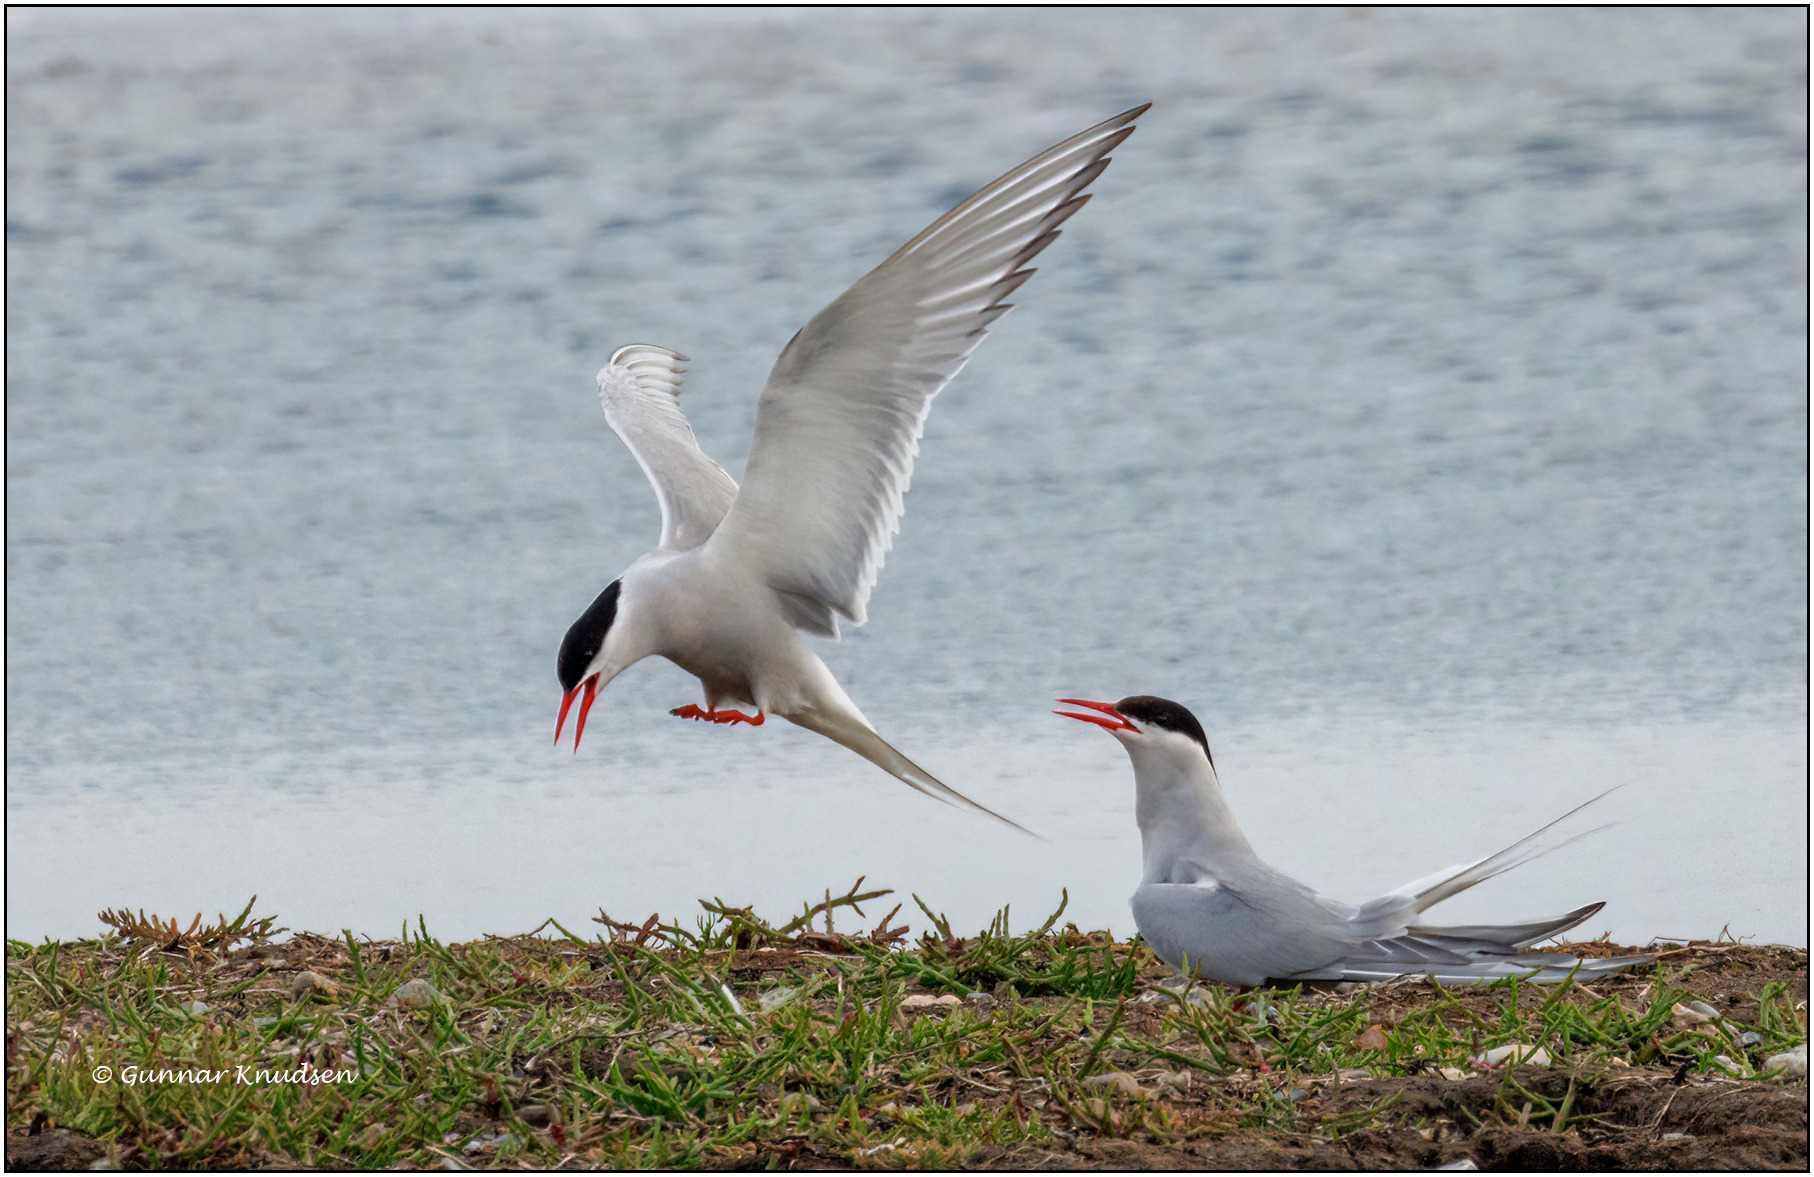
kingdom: Animalia
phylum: Chordata
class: Aves
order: Charadriiformes
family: Laridae
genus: Sterna
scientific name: Sterna paradisaea
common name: Havterne
